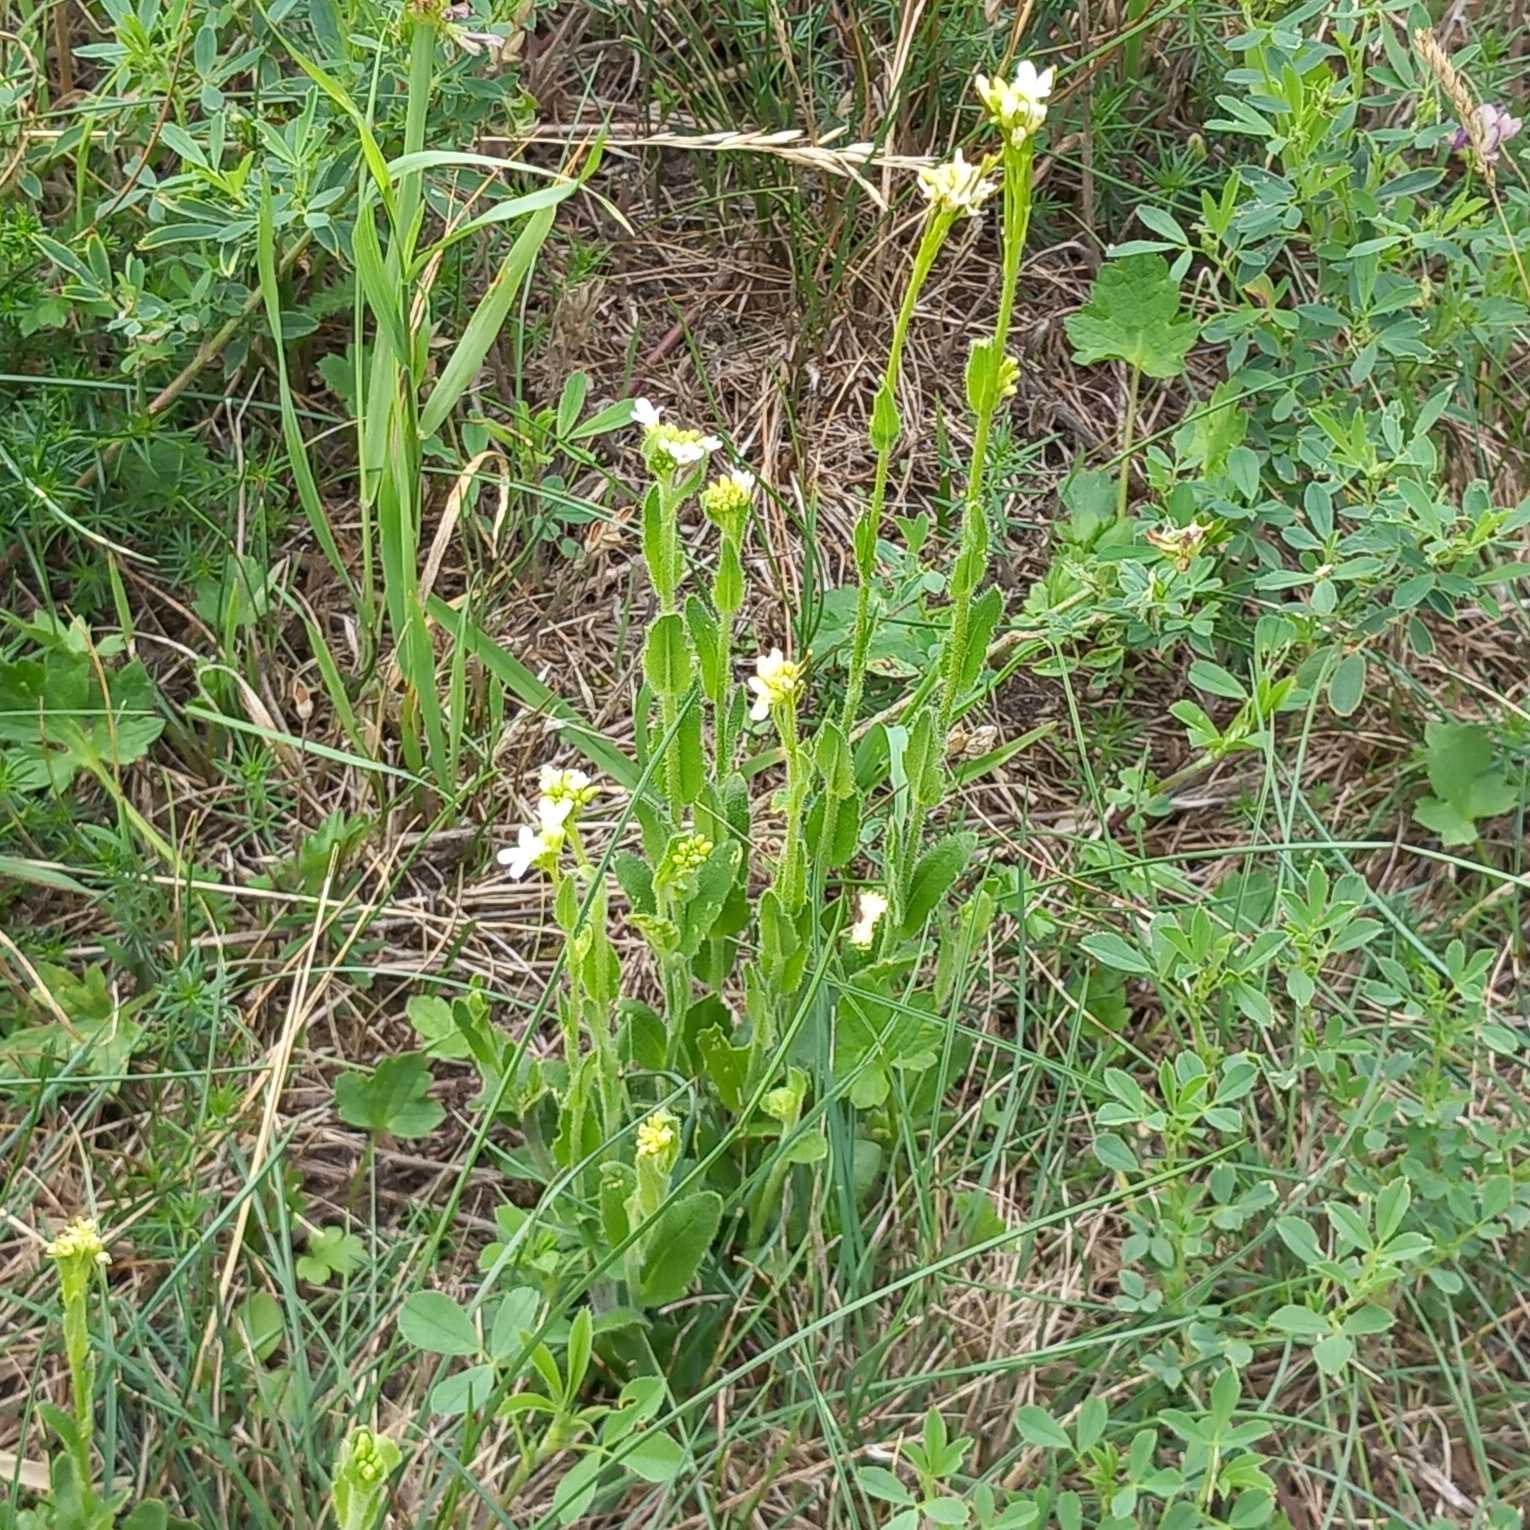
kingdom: Plantae
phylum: Tracheophyta
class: Magnoliopsida
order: Brassicales
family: Brassicaceae
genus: Arabis
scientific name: Arabis hirsuta
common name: Stivhåret kalkkarse
